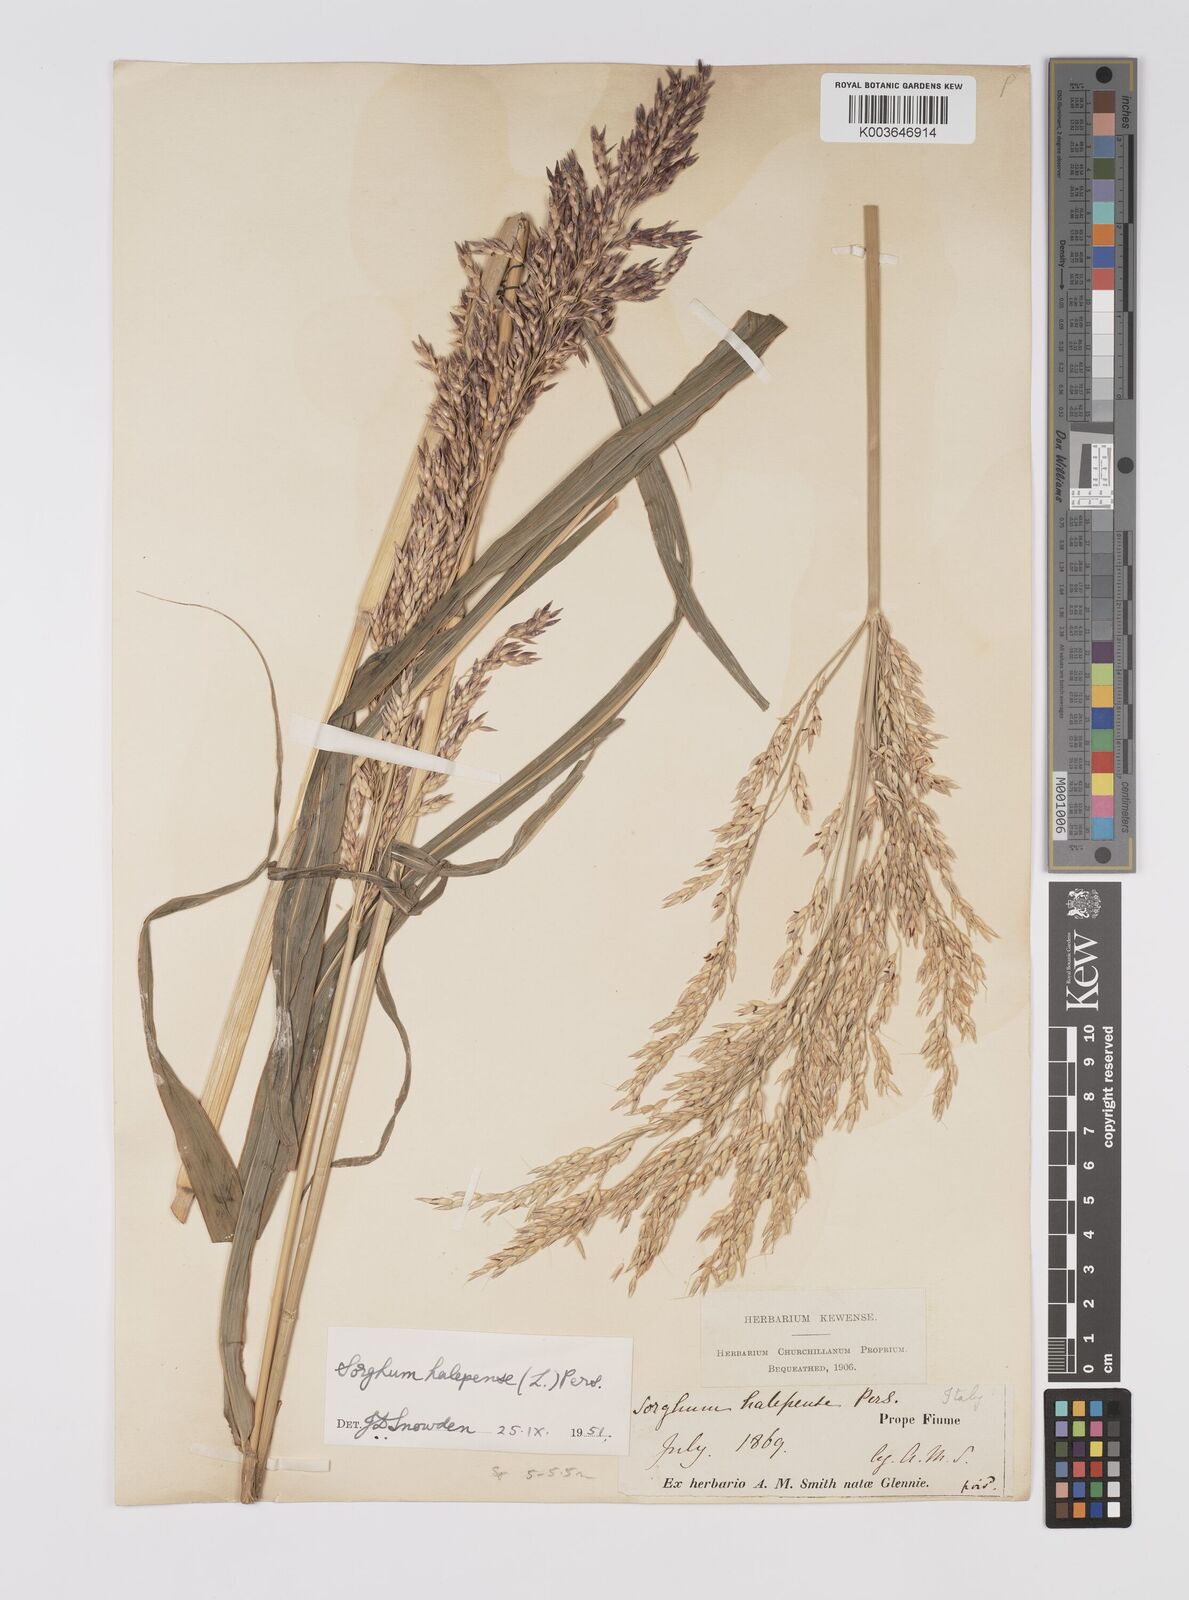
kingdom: Plantae
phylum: Tracheophyta
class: Liliopsida
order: Poales
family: Poaceae
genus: Sorghum
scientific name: Sorghum halepense
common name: Johnson-grass
